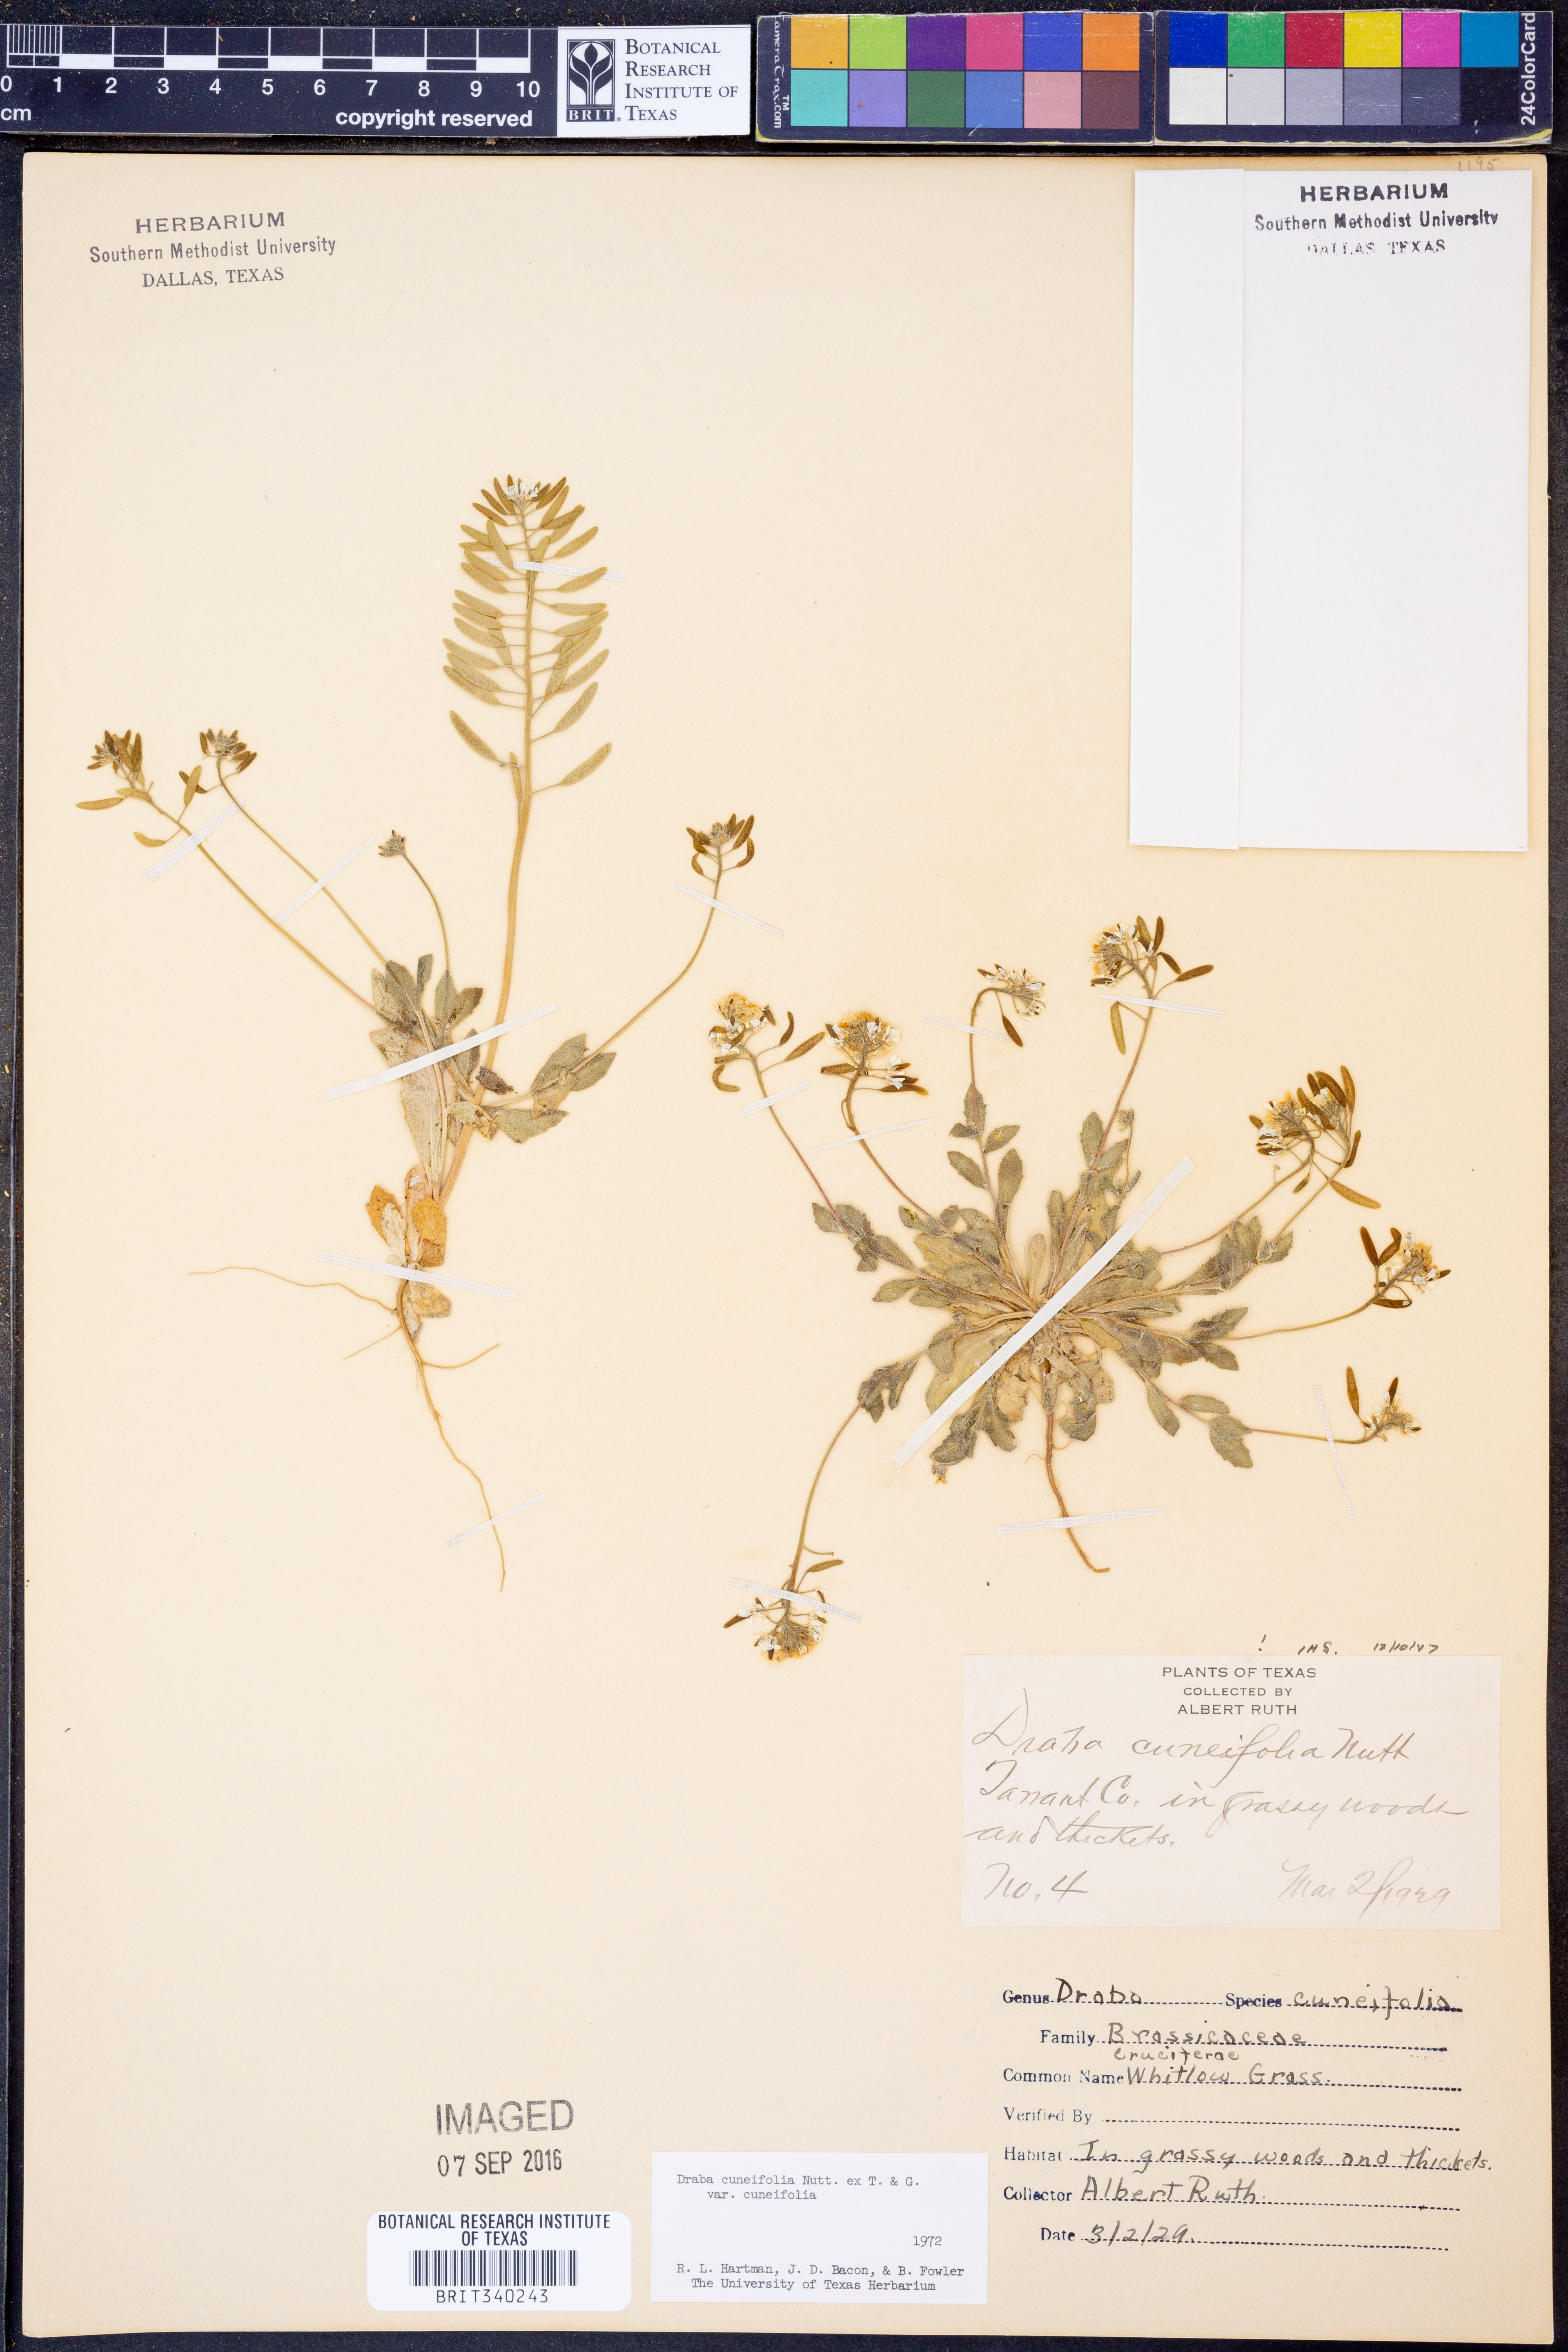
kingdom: Plantae
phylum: Tracheophyta
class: Magnoliopsida
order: Brassicales
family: Brassicaceae
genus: Tomostima
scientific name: Tomostima cuneifolia
